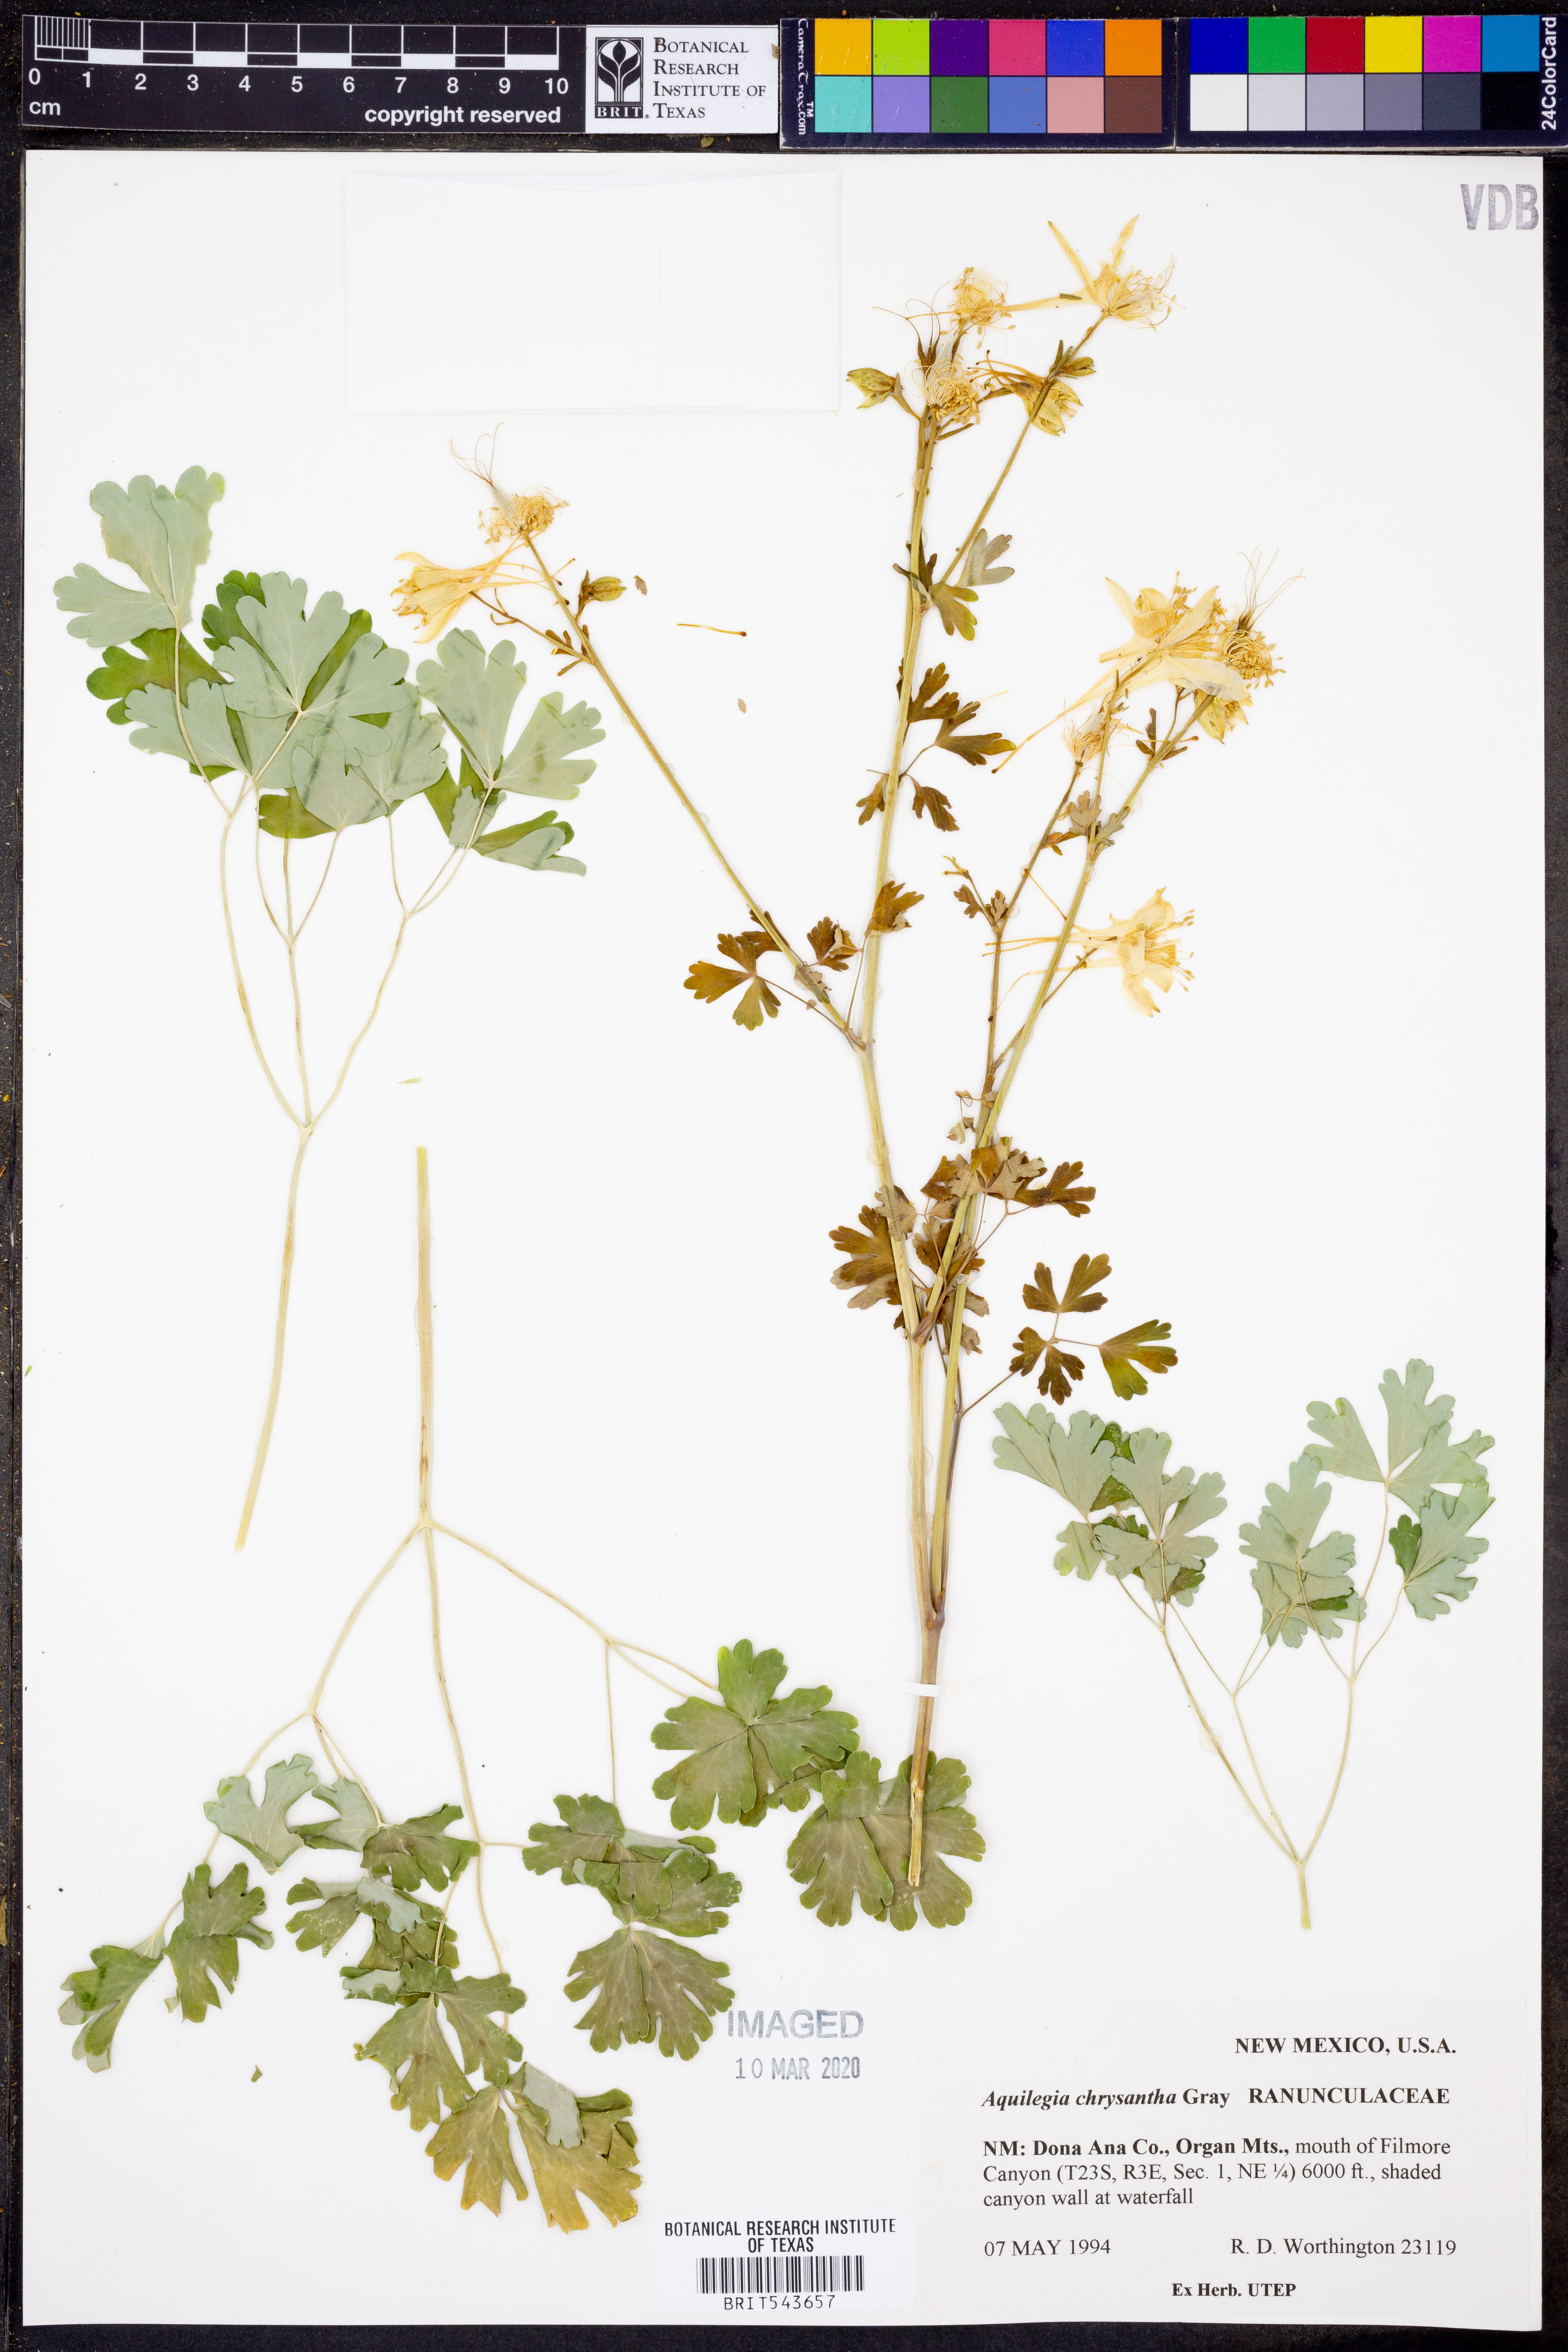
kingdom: Plantae
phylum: Tracheophyta
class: Magnoliopsida
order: Ranunculales
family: Ranunculaceae
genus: Aquilegia
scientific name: Aquilegia chrysantha
